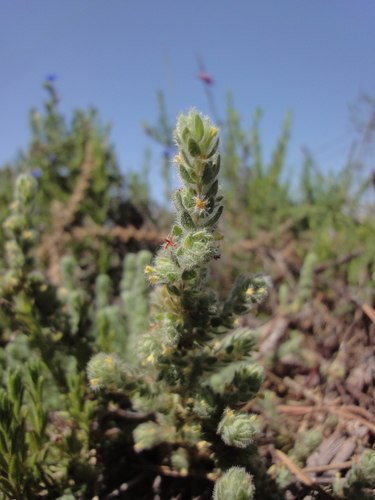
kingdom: Plantae
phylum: Tracheophyta
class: Magnoliopsida
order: Malvales
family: Thymelaeaceae
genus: Thymelaea
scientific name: Thymelaea villosa
